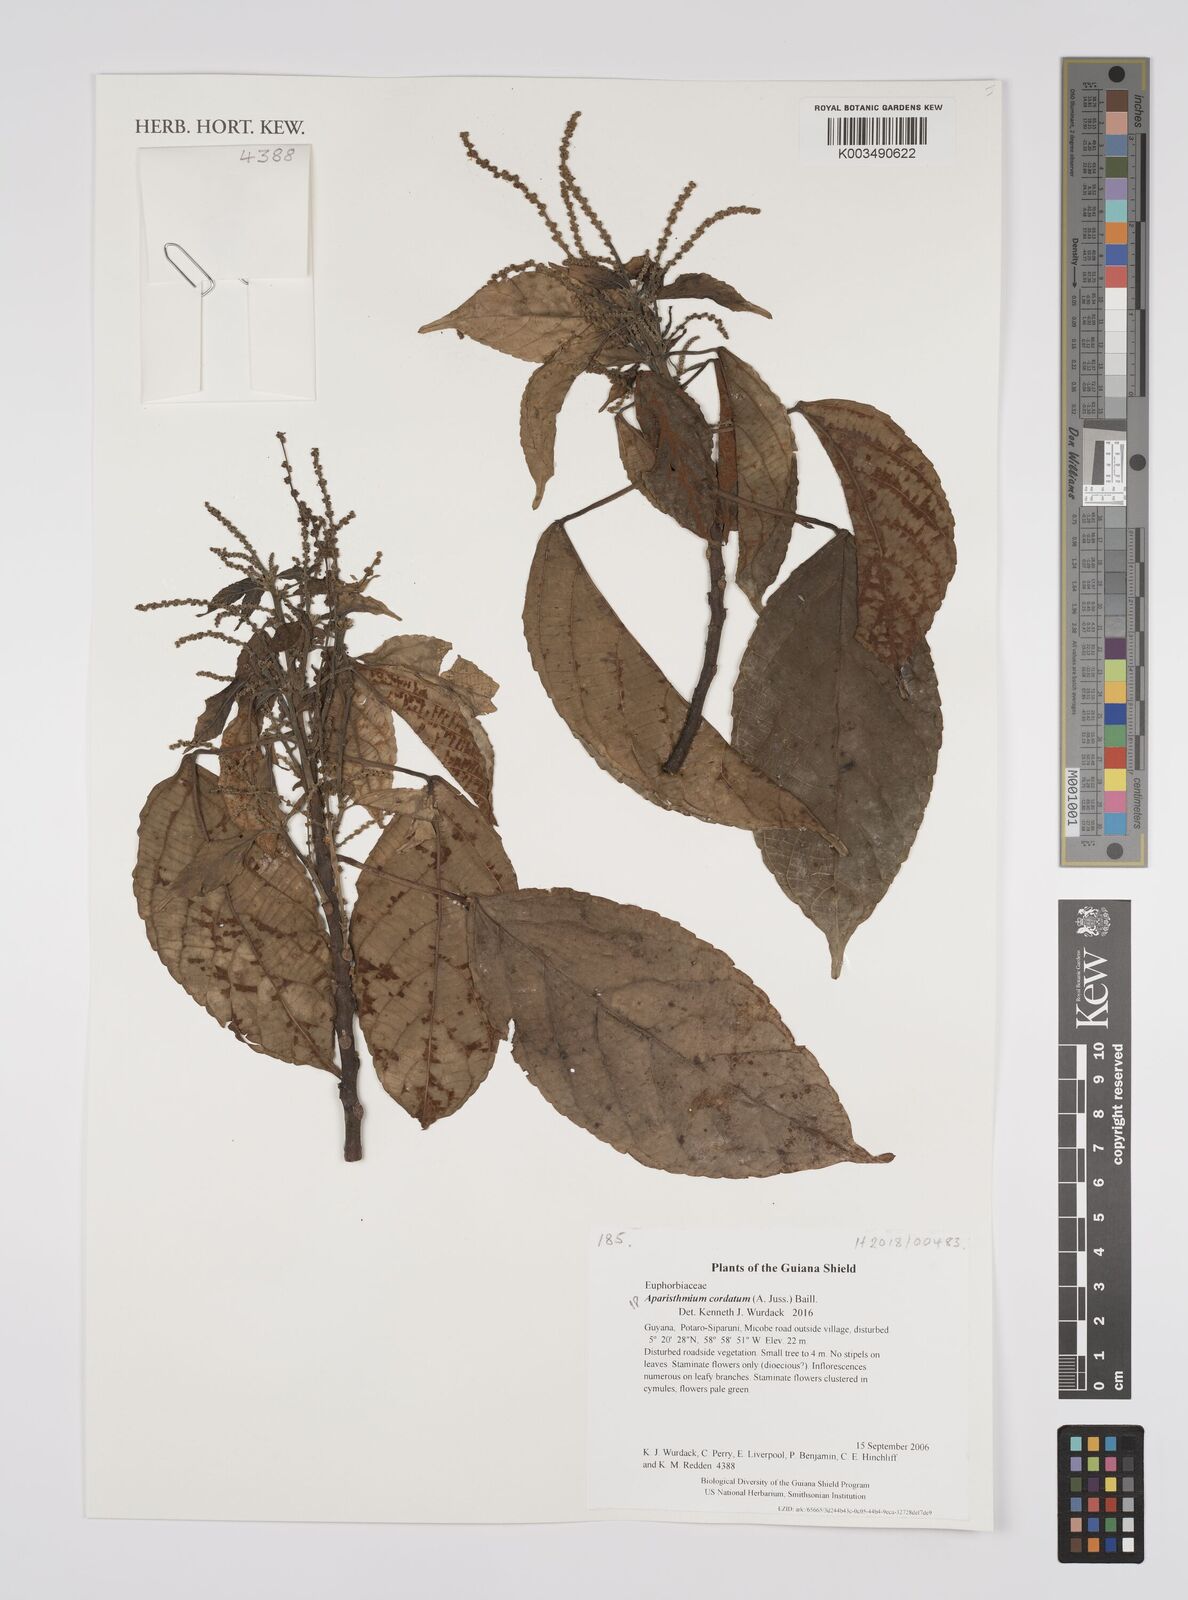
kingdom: Plantae
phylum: Tracheophyta
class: Magnoliopsida
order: Malpighiales
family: Euphorbiaceae
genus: Aparisthmium
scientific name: Aparisthmium cordatum
